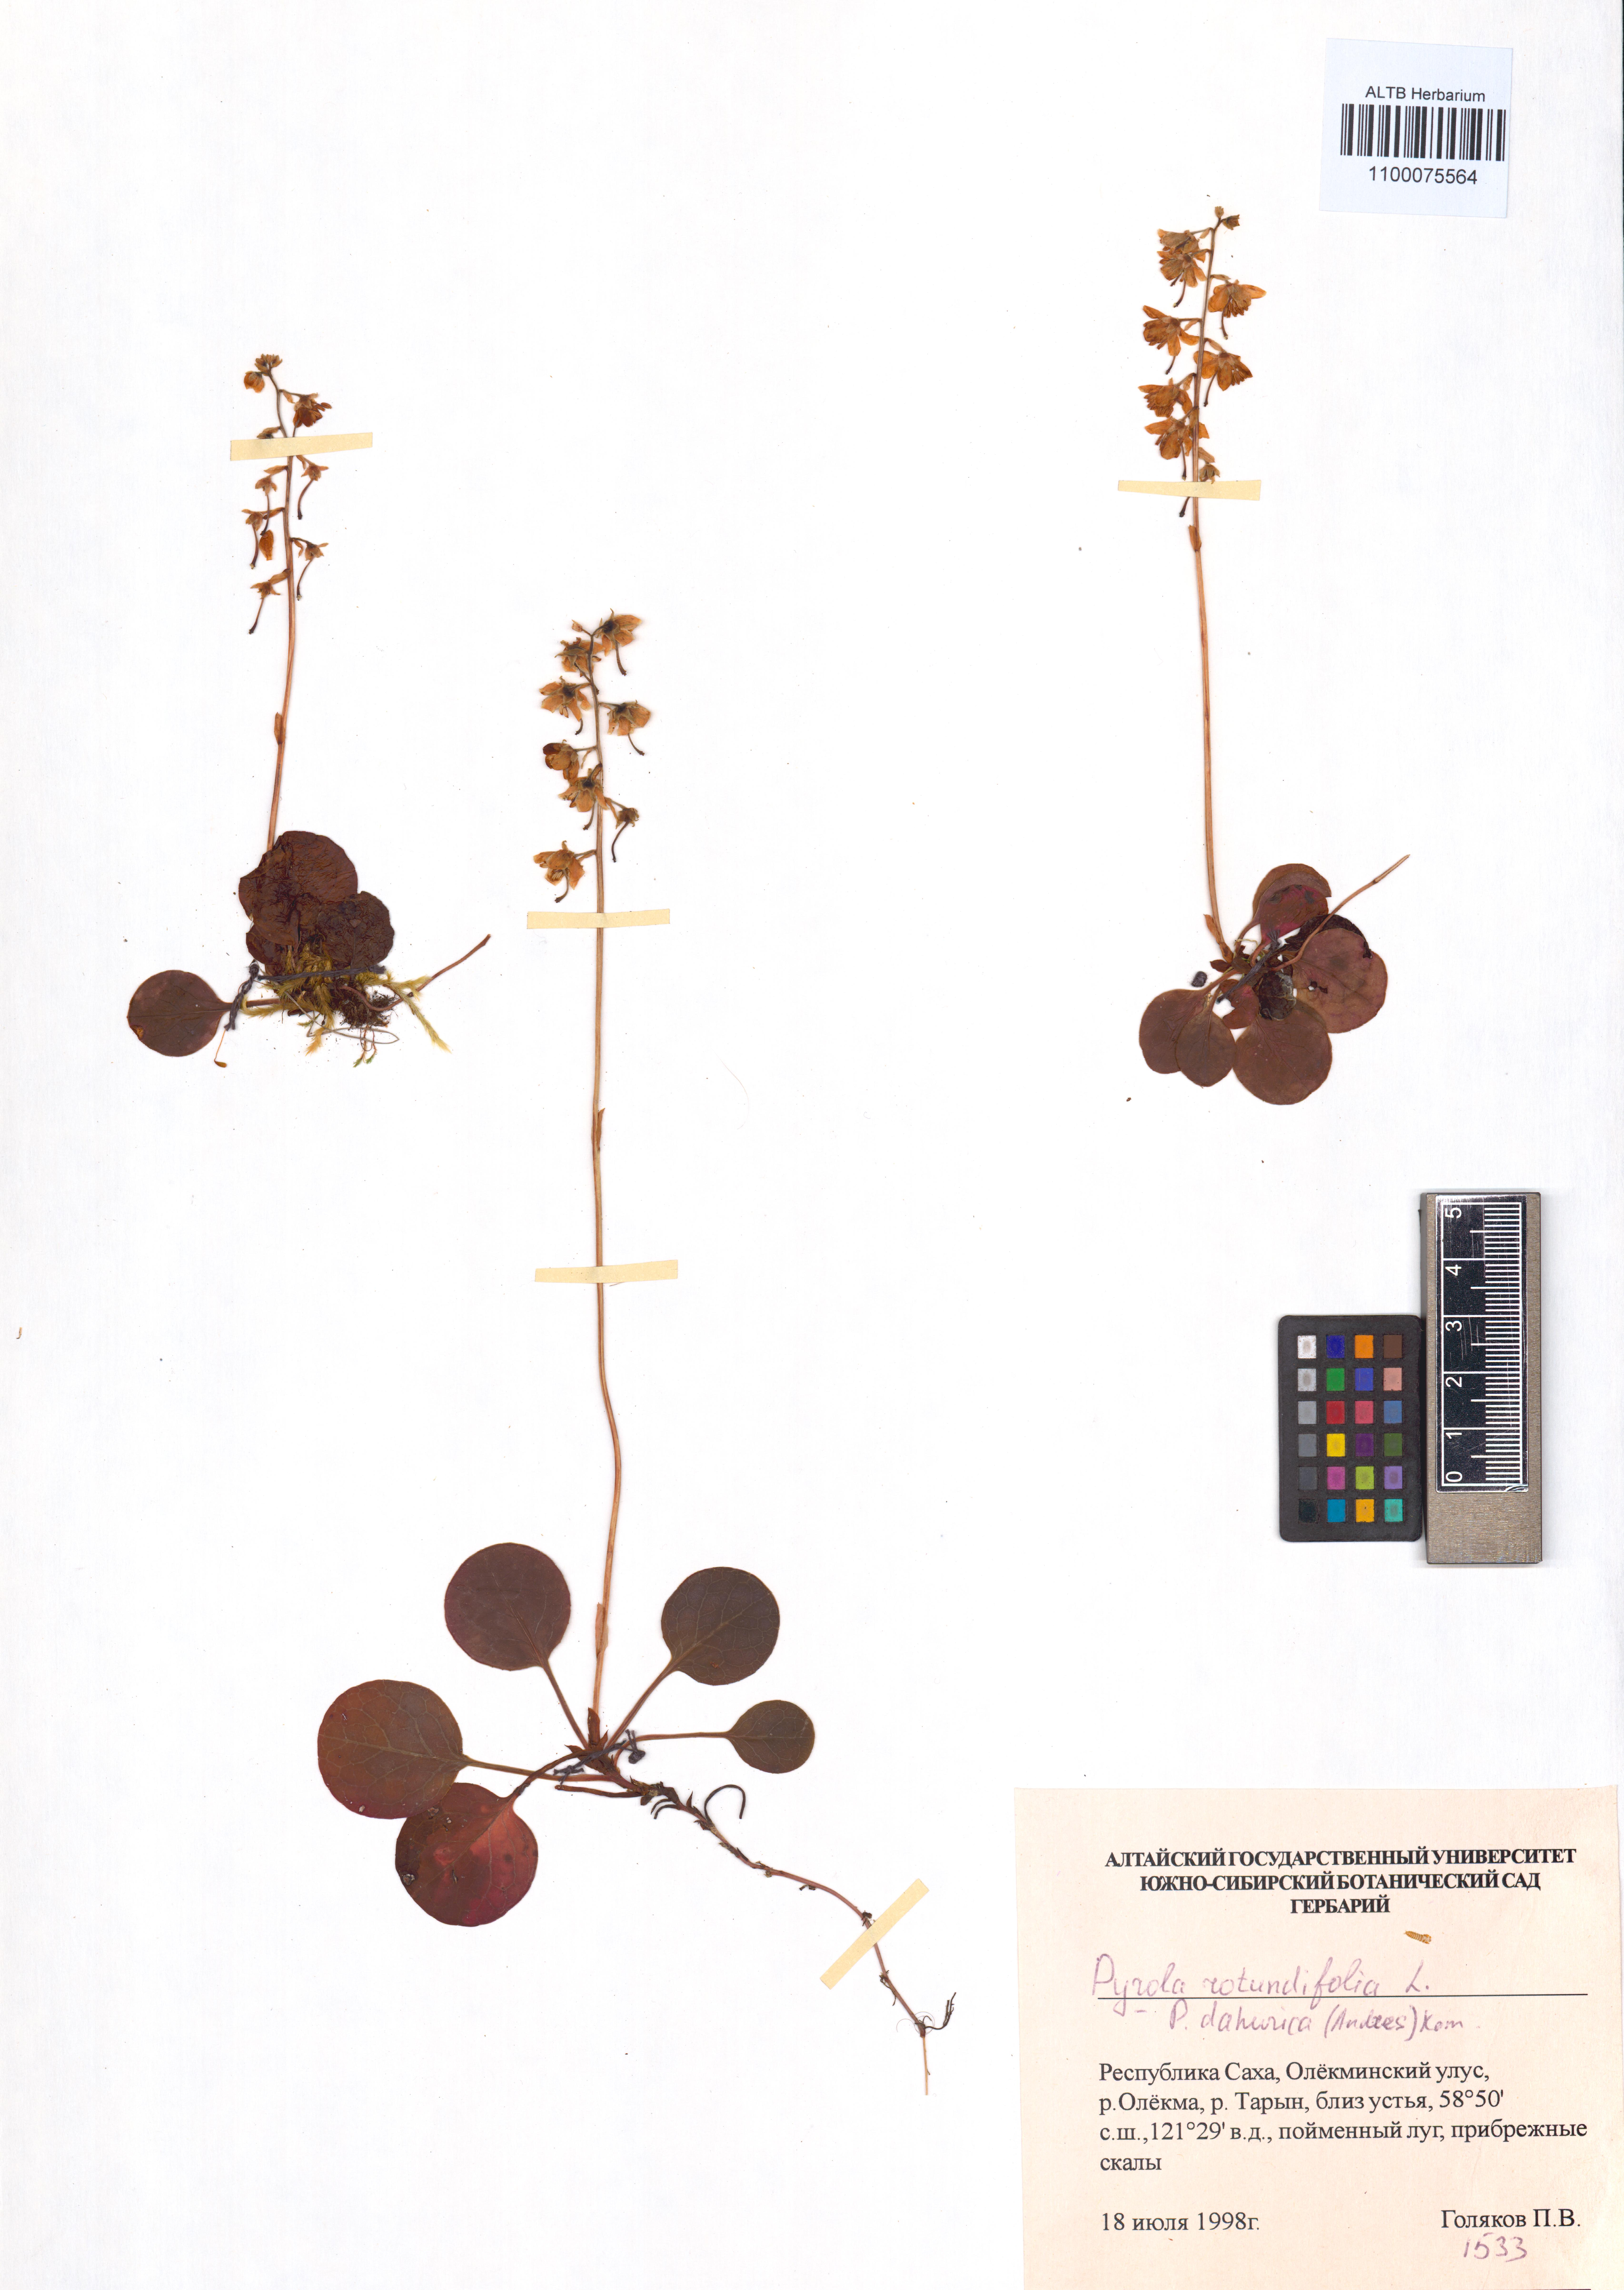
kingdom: Plantae
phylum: Tracheophyta
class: Magnoliopsida
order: Ericales
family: Ericaceae
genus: Pyrola
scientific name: Pyrola rotundifolia
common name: Round-leaved wintergreen
